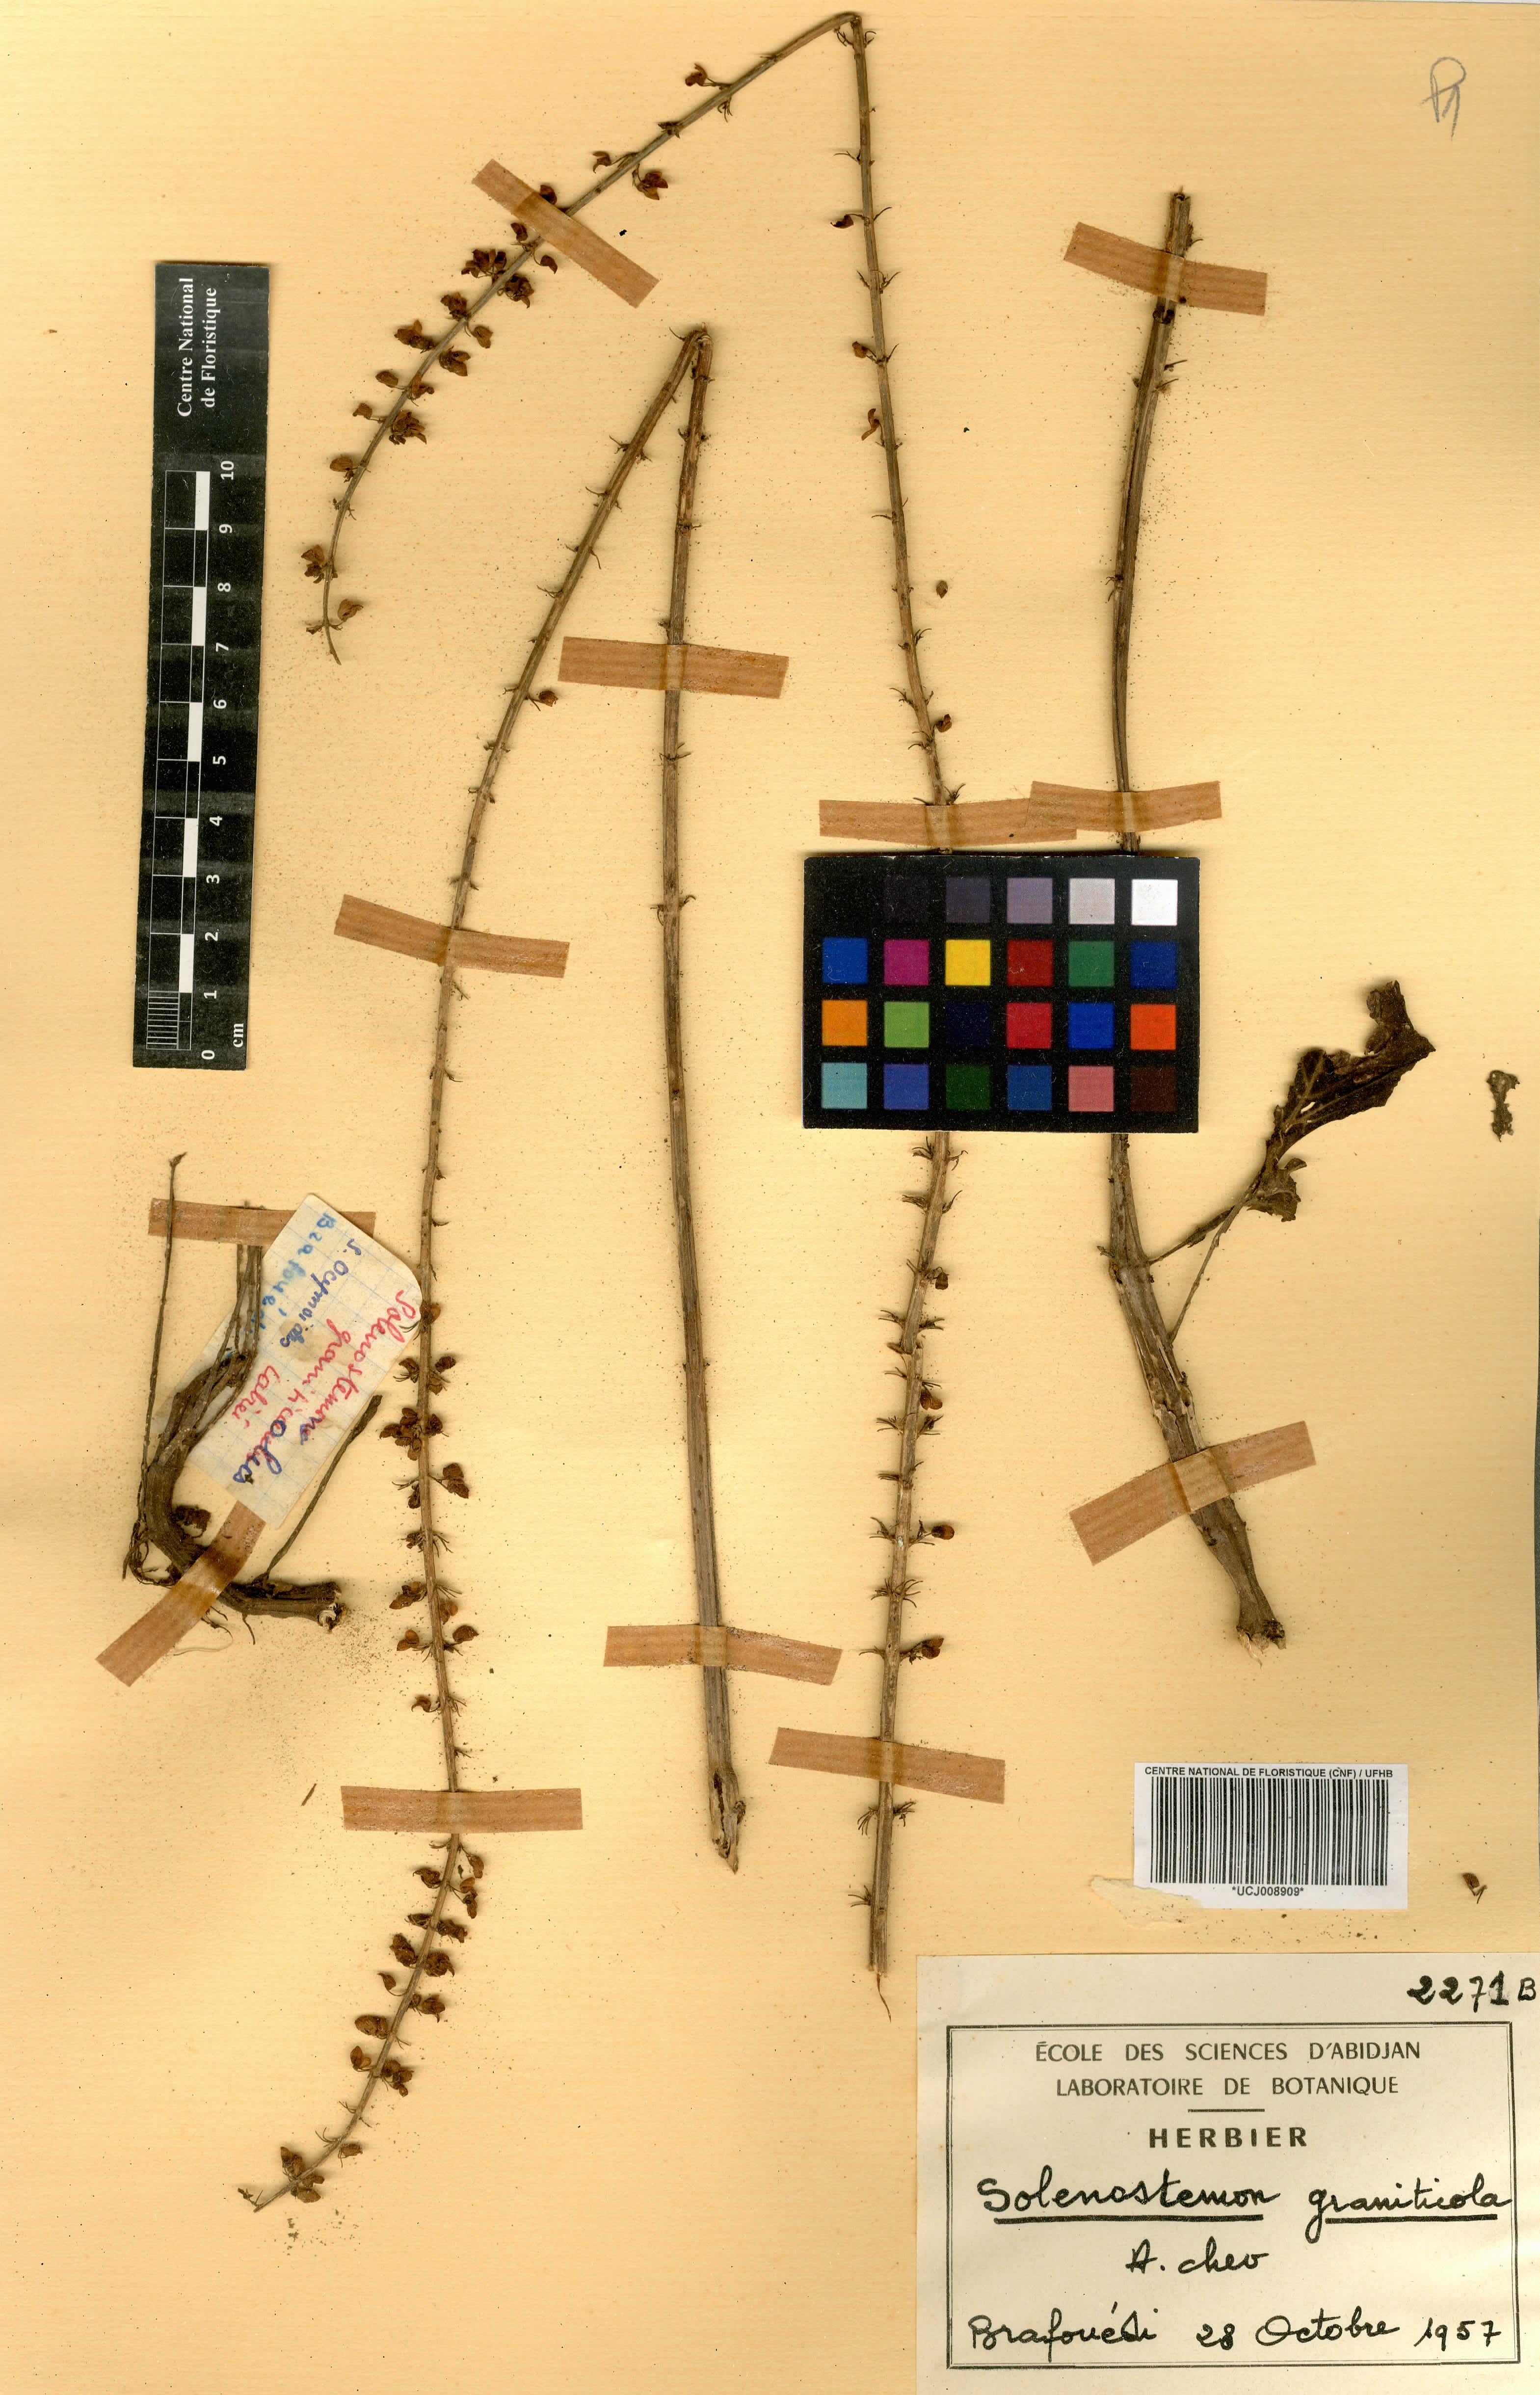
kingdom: Plantae
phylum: Tracheophyta
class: Magnoliopsida
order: Lamiales
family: Lamiaceae
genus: Coleus
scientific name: Coleus graniticola
